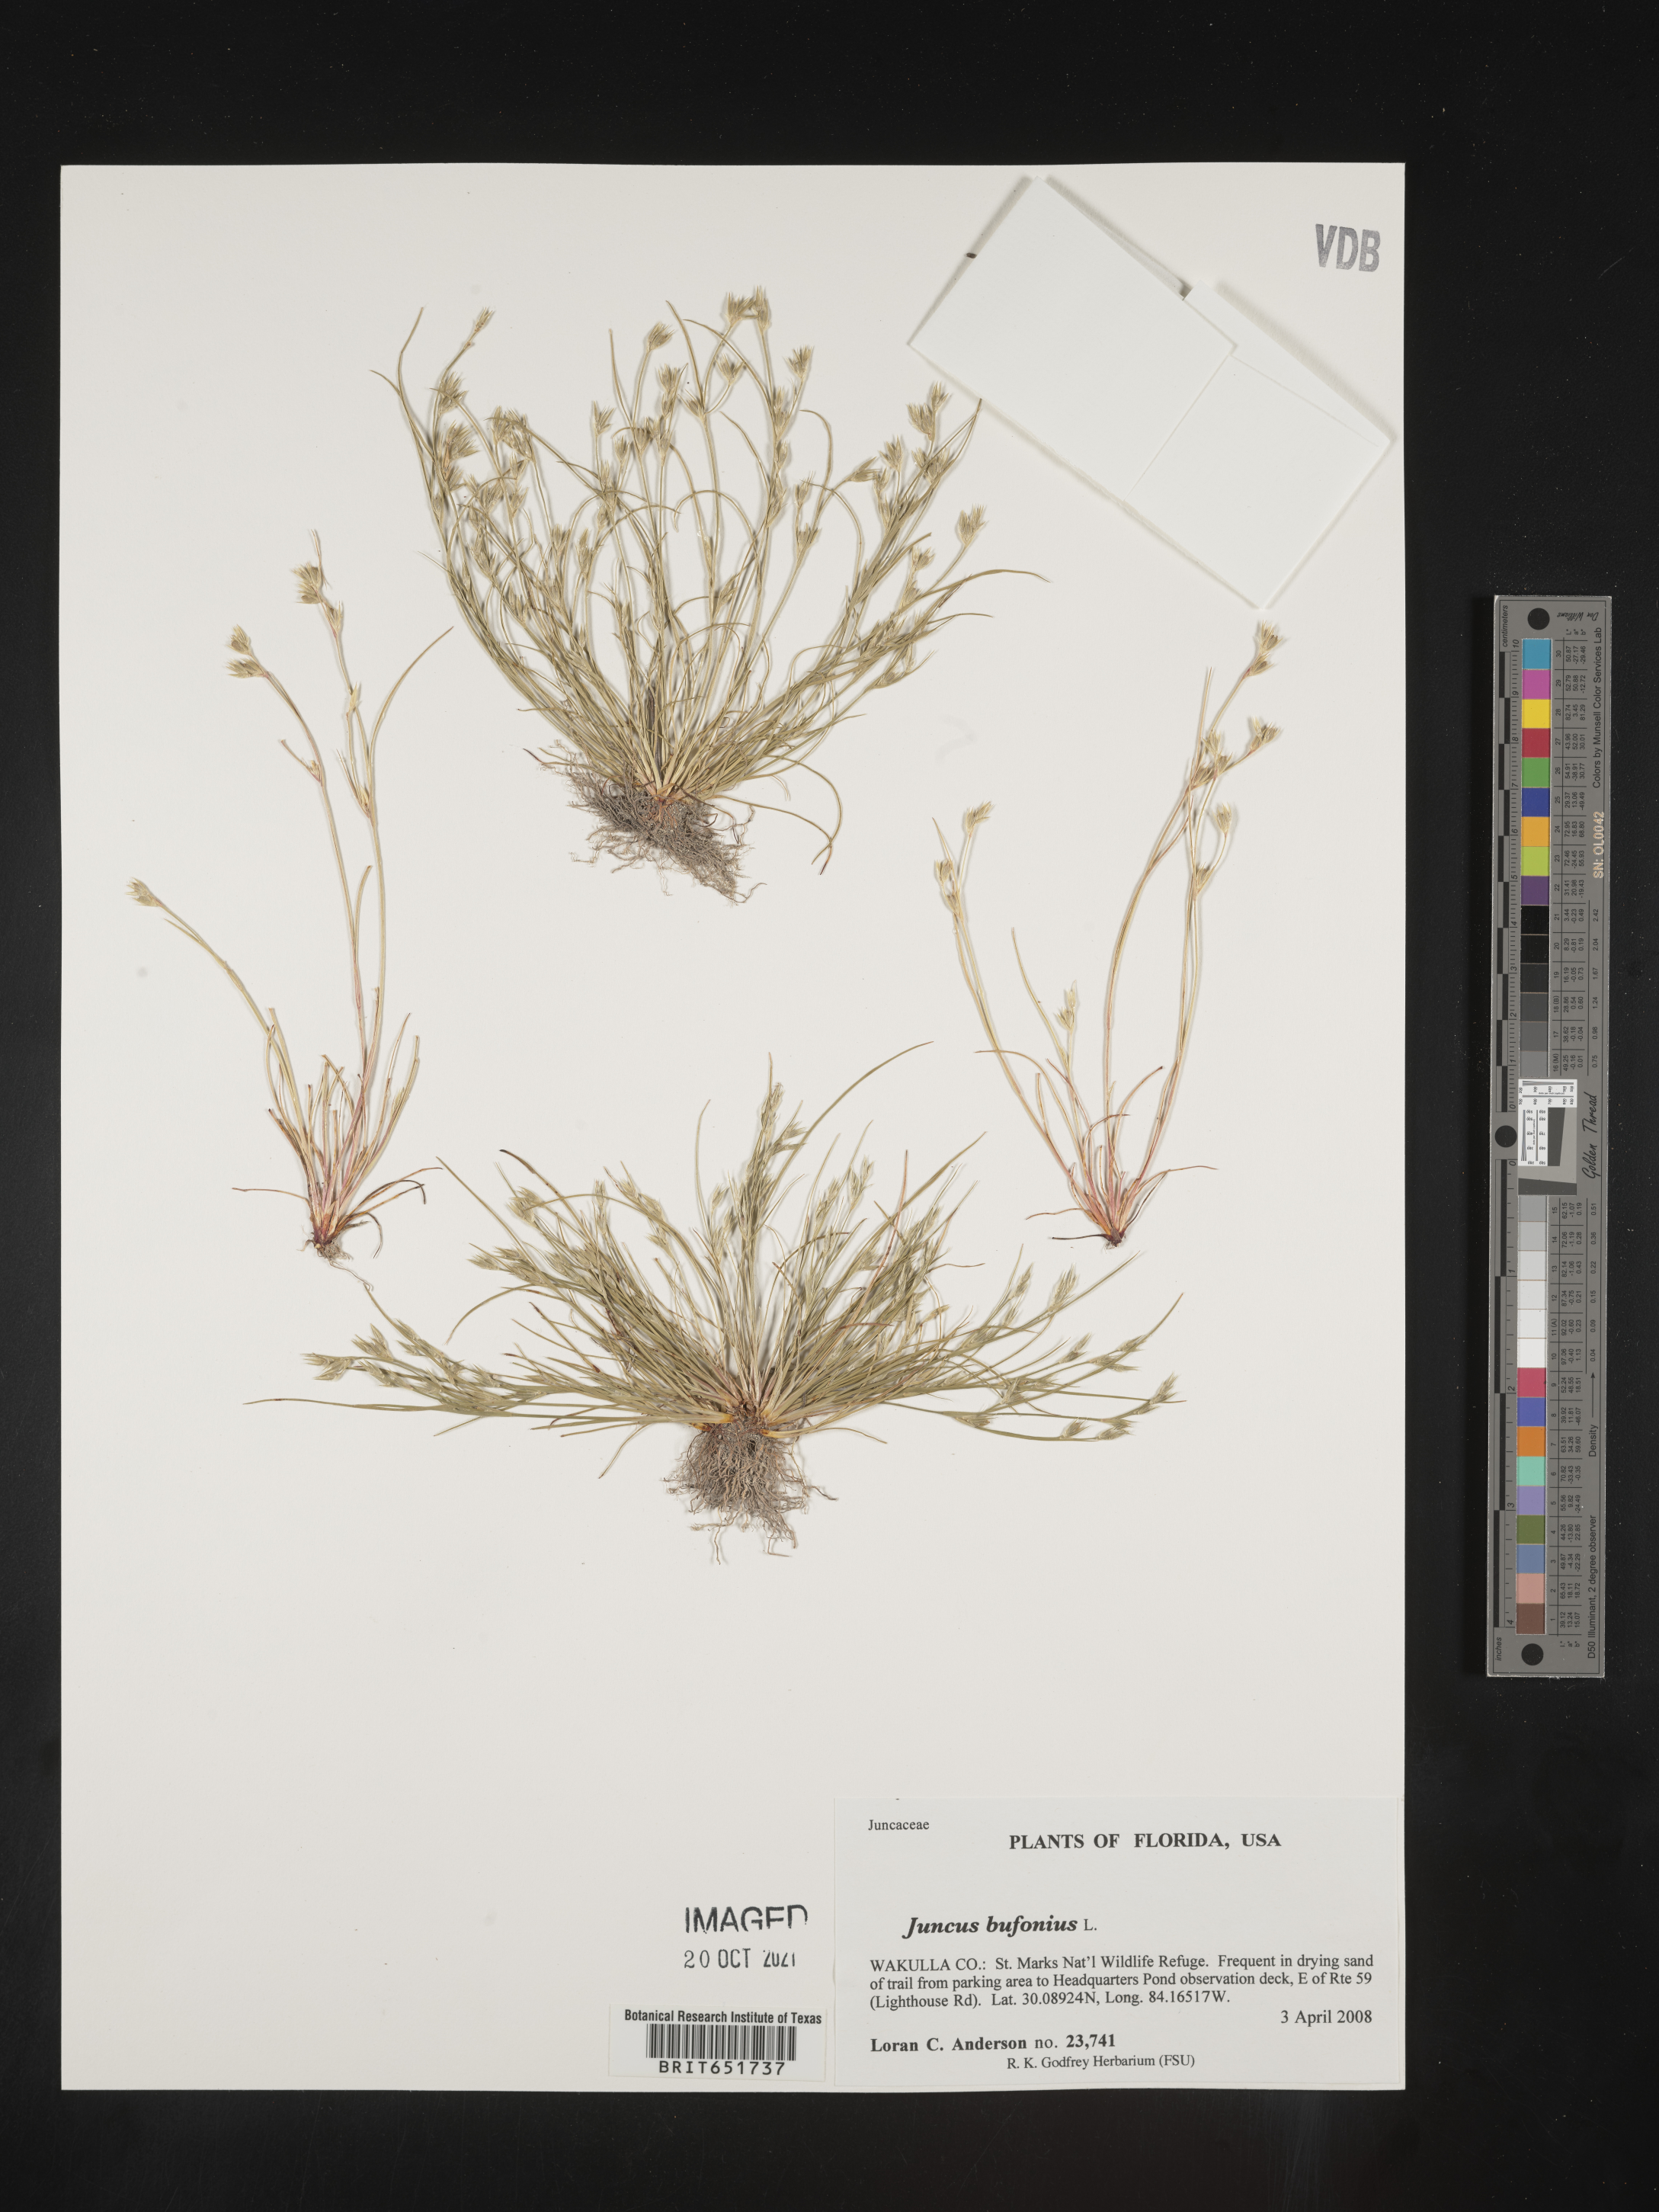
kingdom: Plantae
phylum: Tracheophyta
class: Liliopsida
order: Poales
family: Juncaceae
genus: Juncus
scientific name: Juncus bufonius
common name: Toad rush
